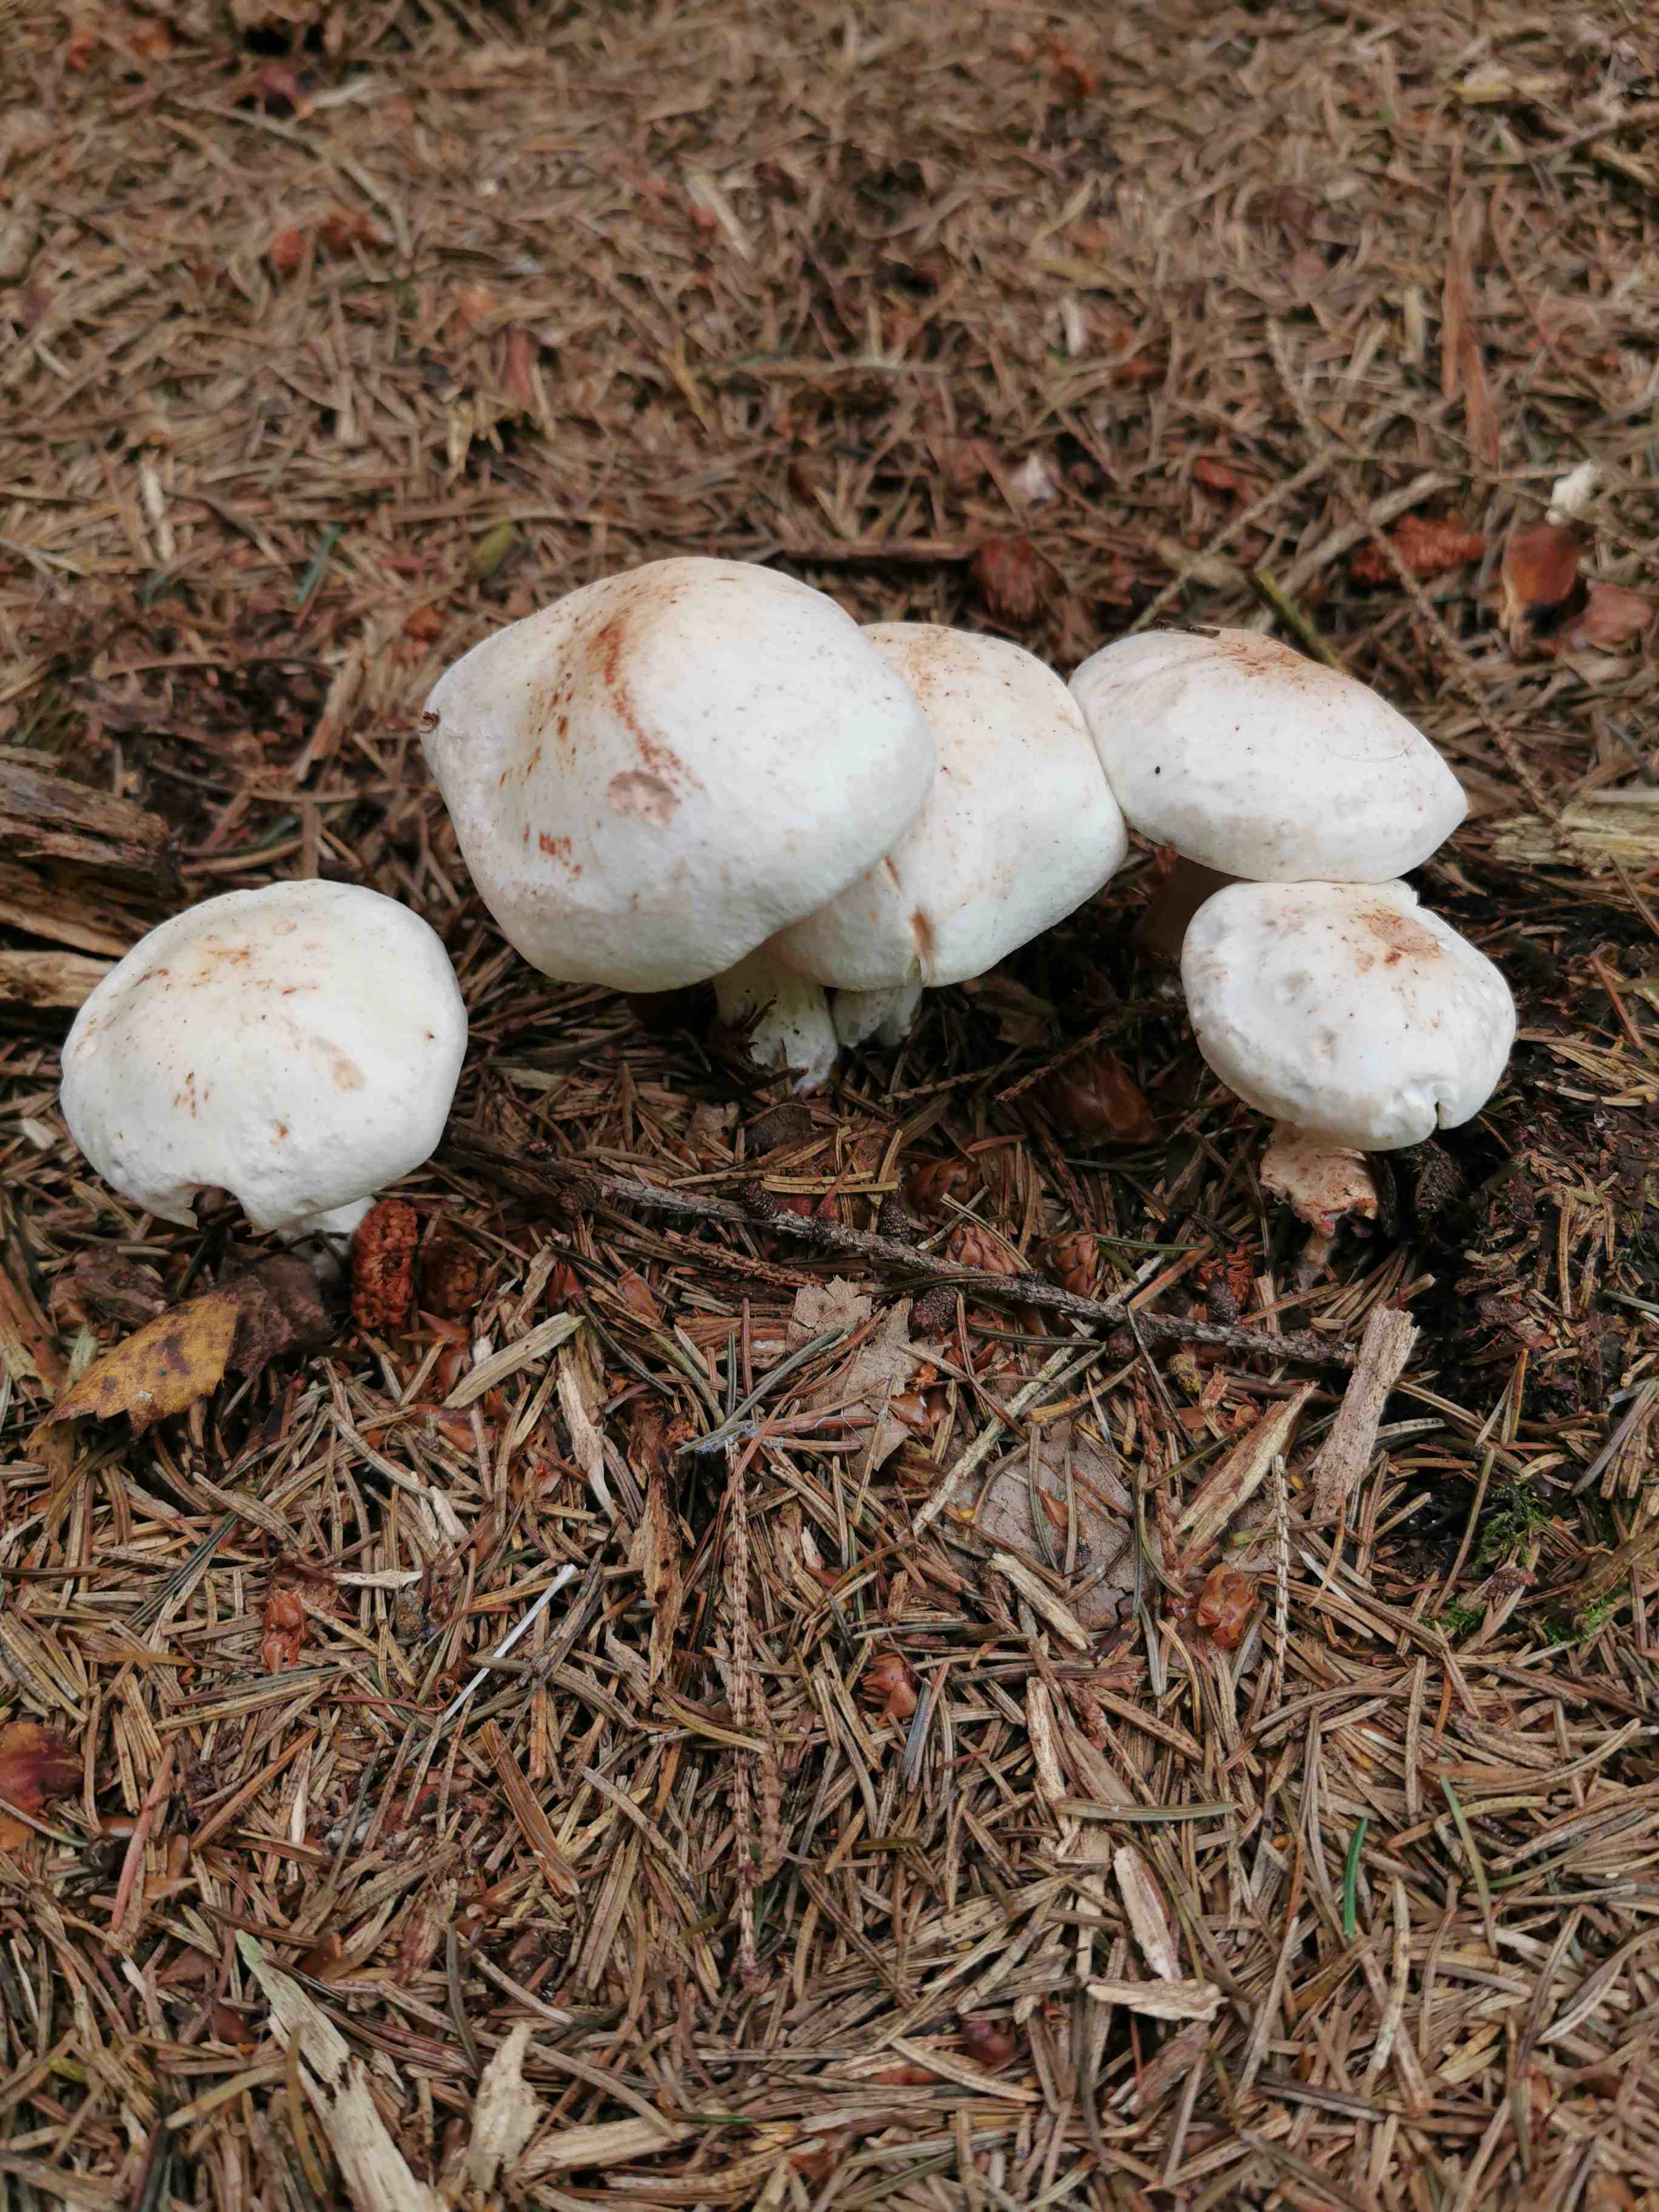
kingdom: Fungi
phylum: Basidiomycota
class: Agaricomycetes
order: Agaricales
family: Omphalotaceae
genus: Rhodocollybia
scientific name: Rhodocollybia maculata
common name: plettet fladhat
